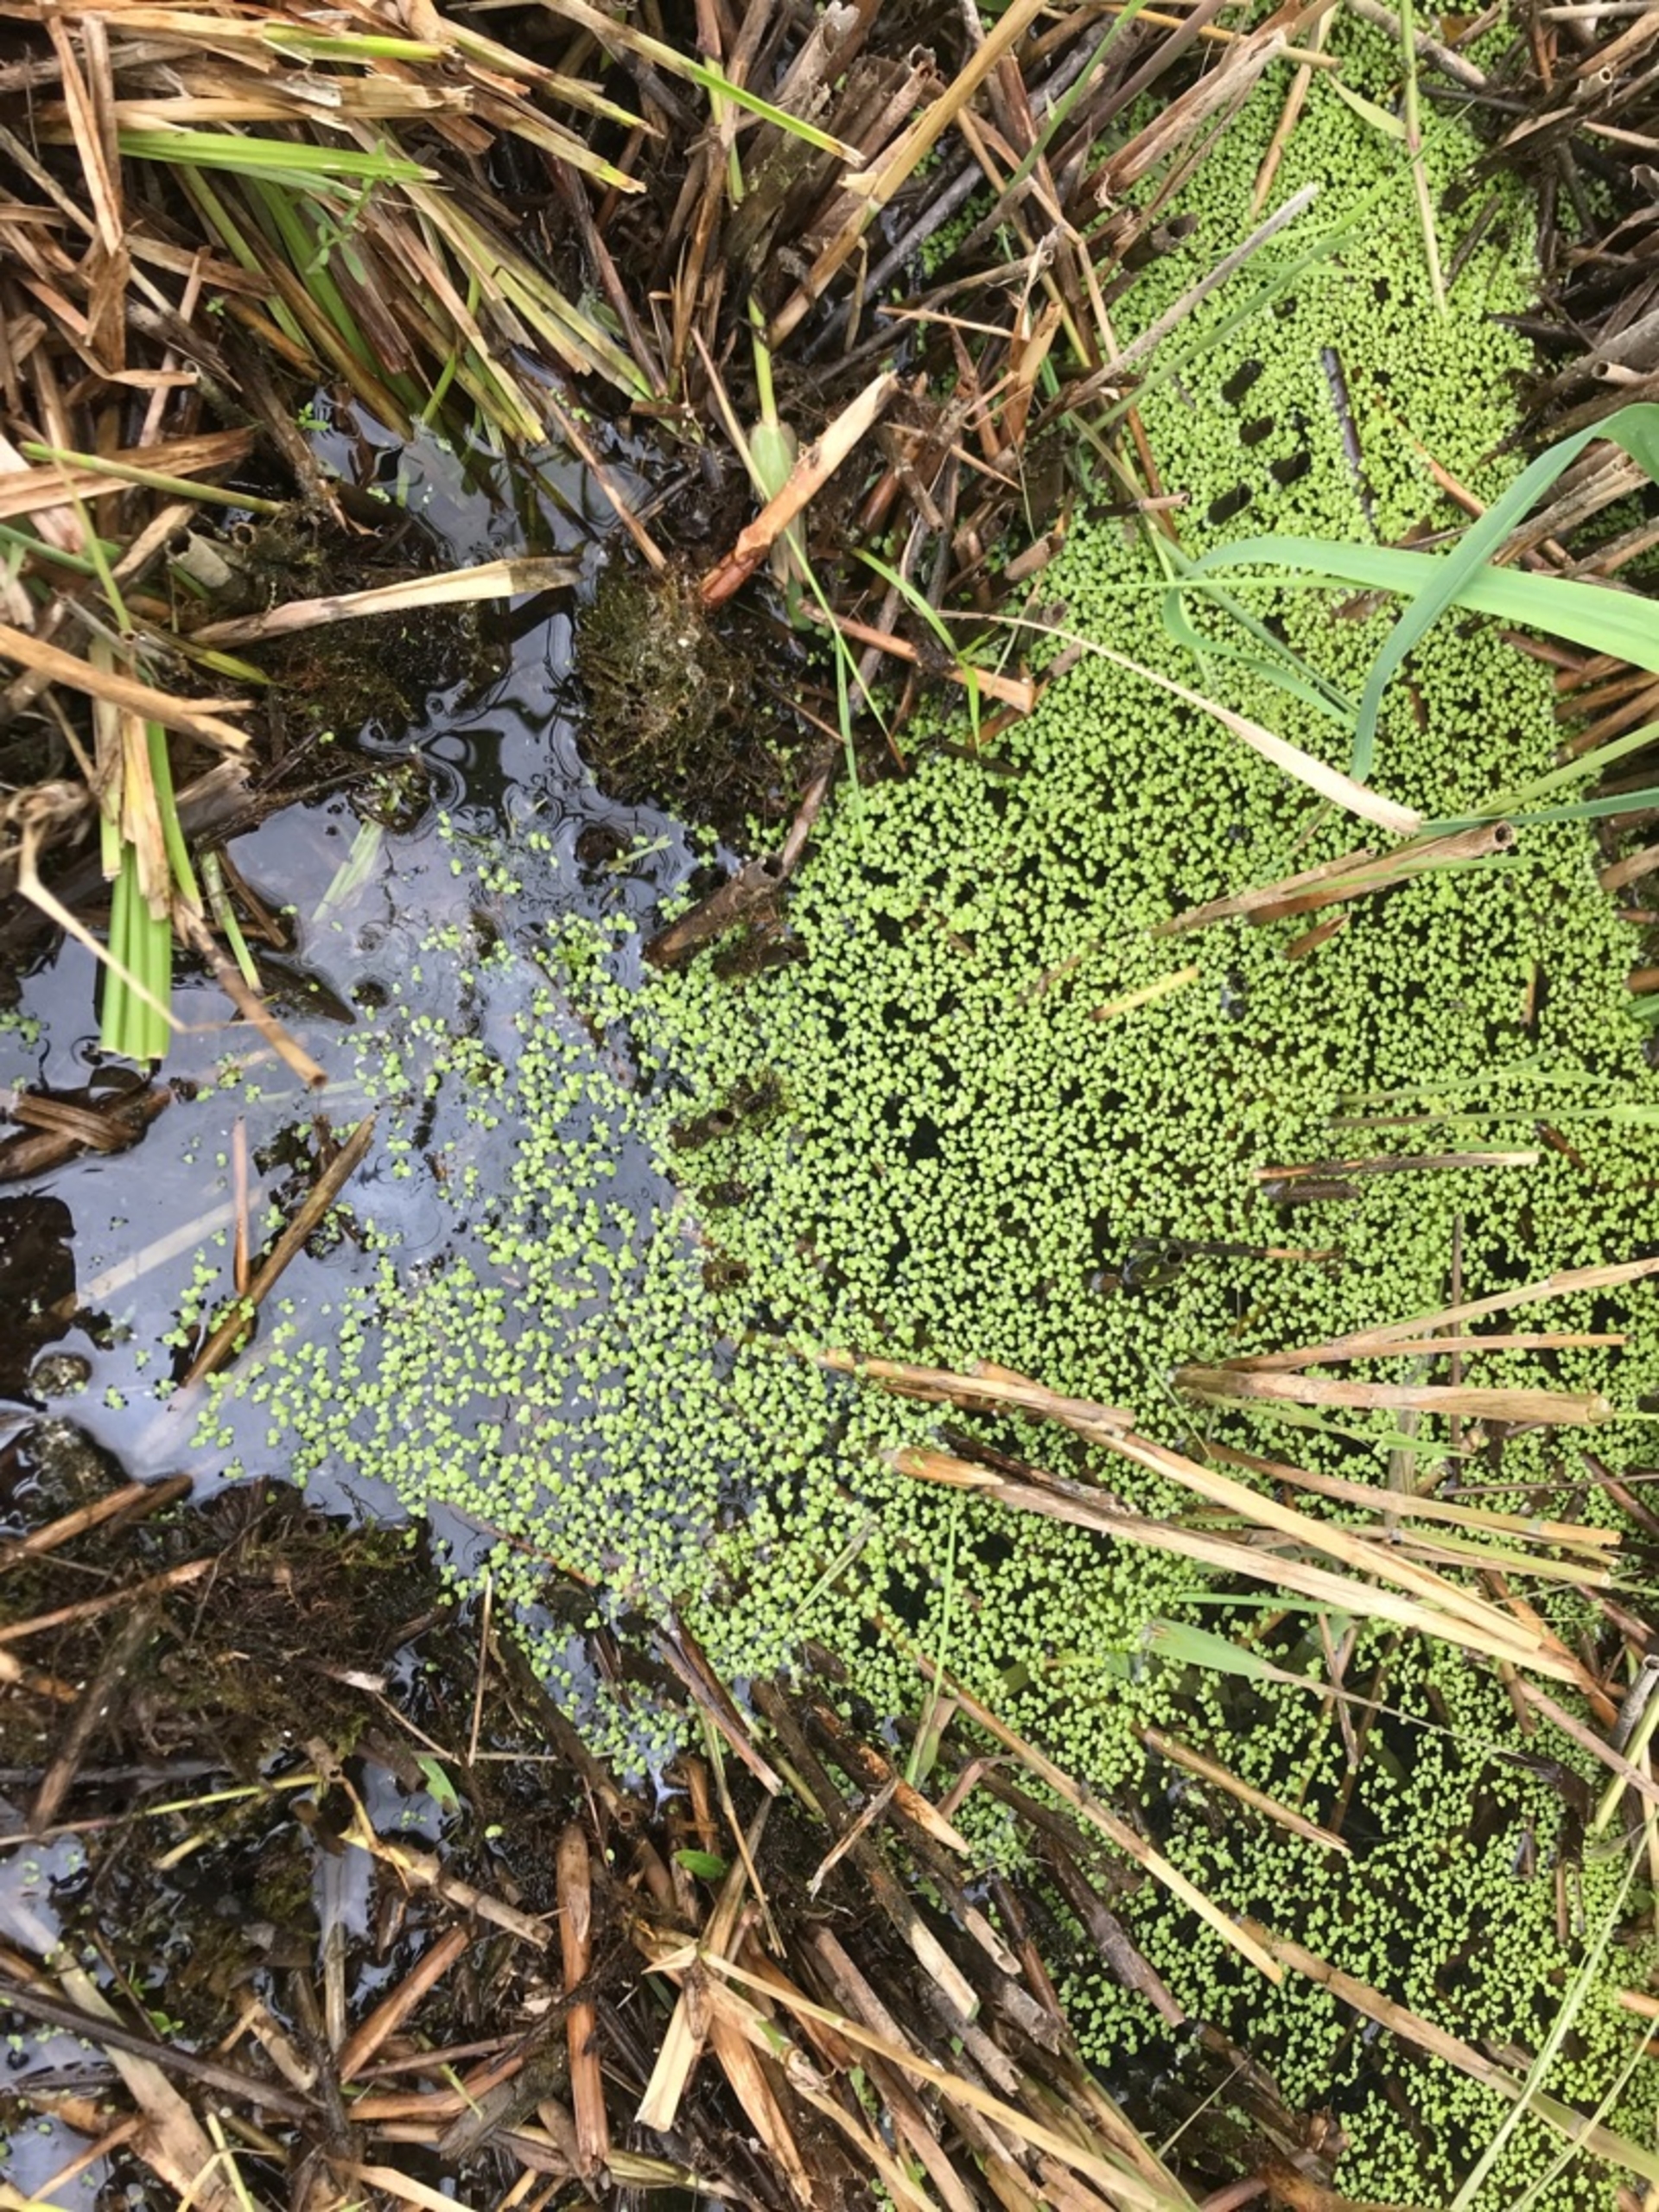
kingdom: Plantae
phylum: Tracheophyta
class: Liliopsida
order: Alismatales
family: Araceae
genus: Lemna
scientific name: Lemna minor
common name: Liden andemad
